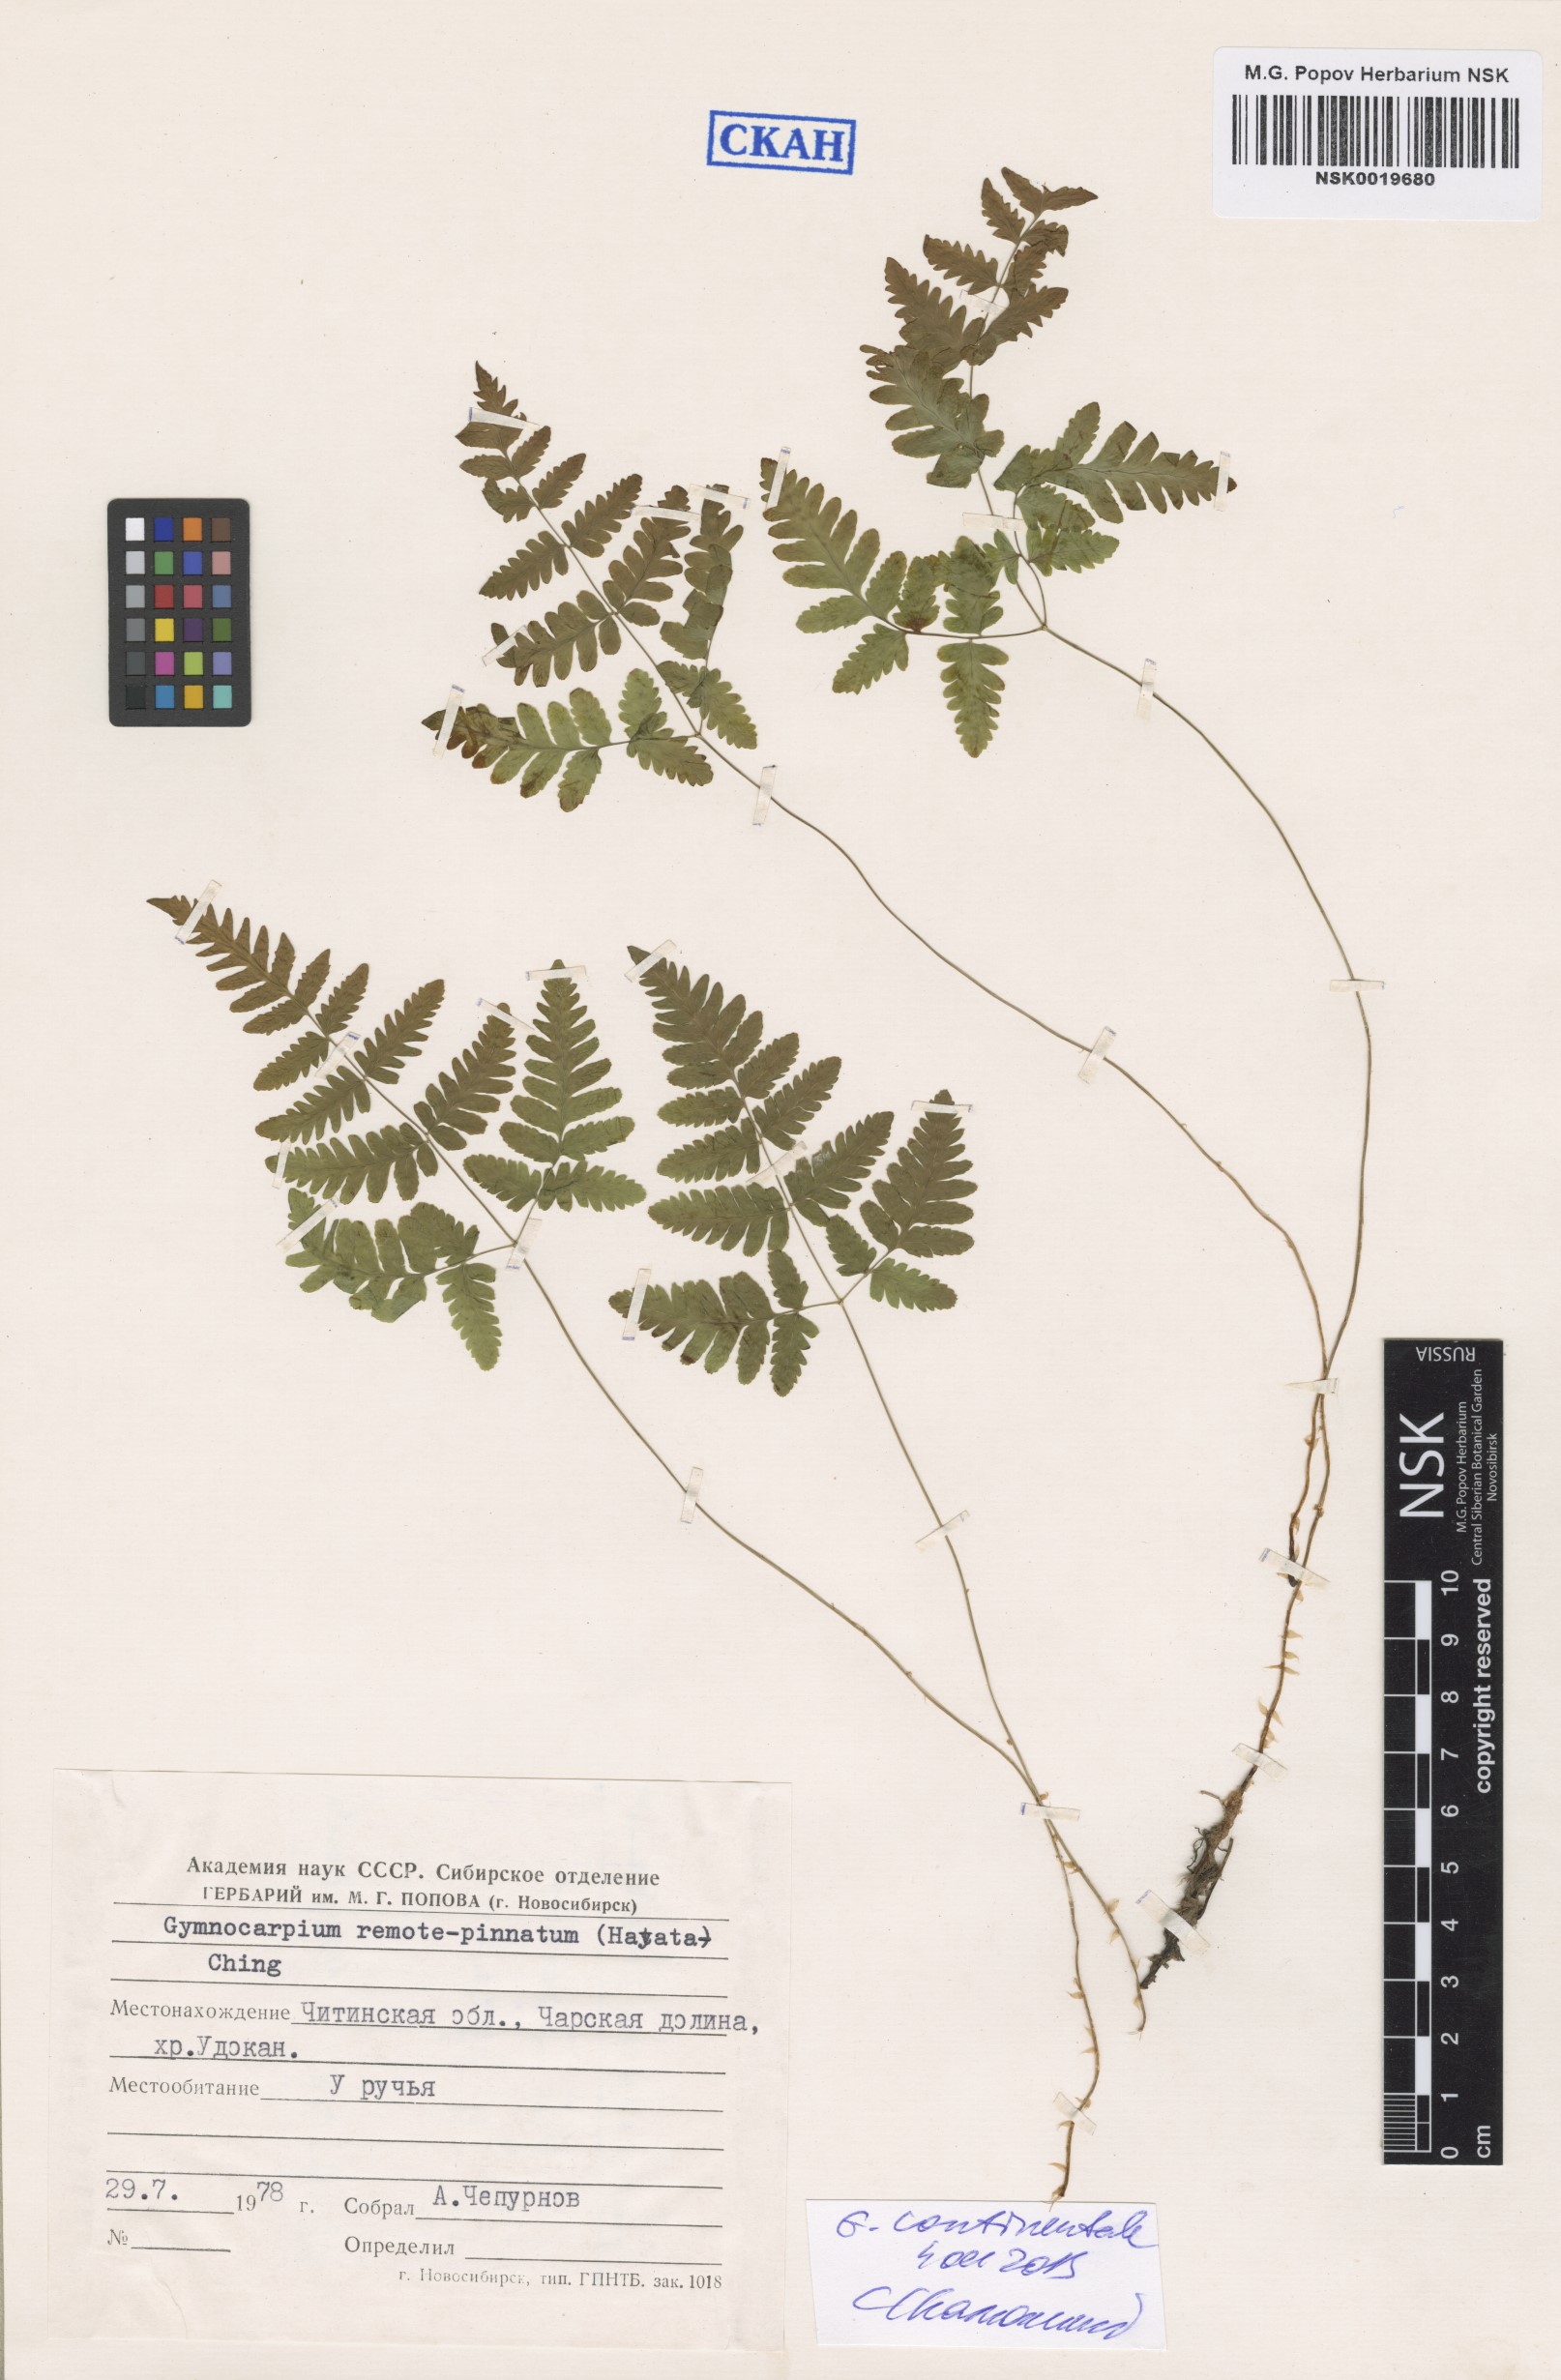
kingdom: Plantae
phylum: Tracheophyta
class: Polypodiopsida
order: Polypodiales
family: Cystopteridaceae
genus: Gymnocarpium
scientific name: Gymnocarpium continentale
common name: Asian oak fern
